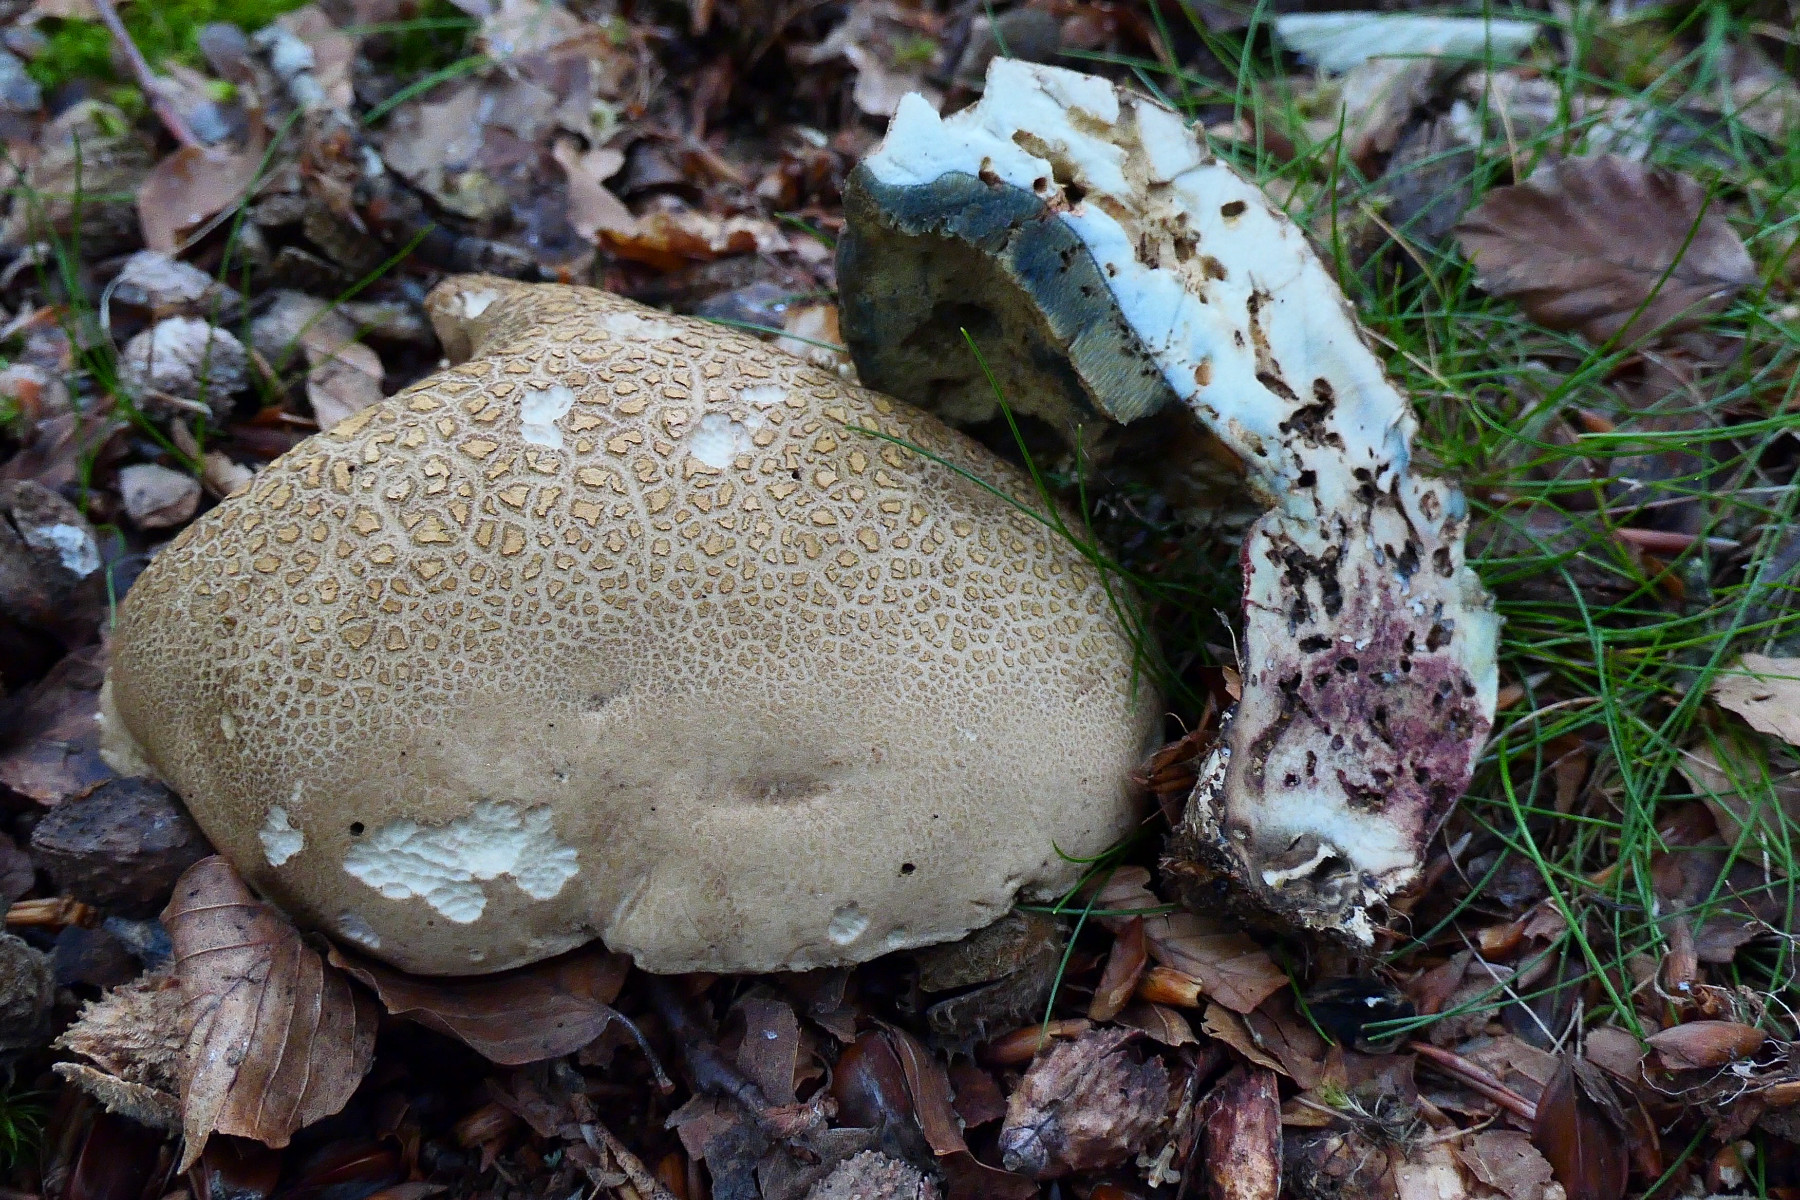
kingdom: Fungi
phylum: Basidiomycota
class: Agaricomycetes
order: Boletales
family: Boletaceae
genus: Caloboletus
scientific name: Caloboletus calopus
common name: skønfodet rørhat
